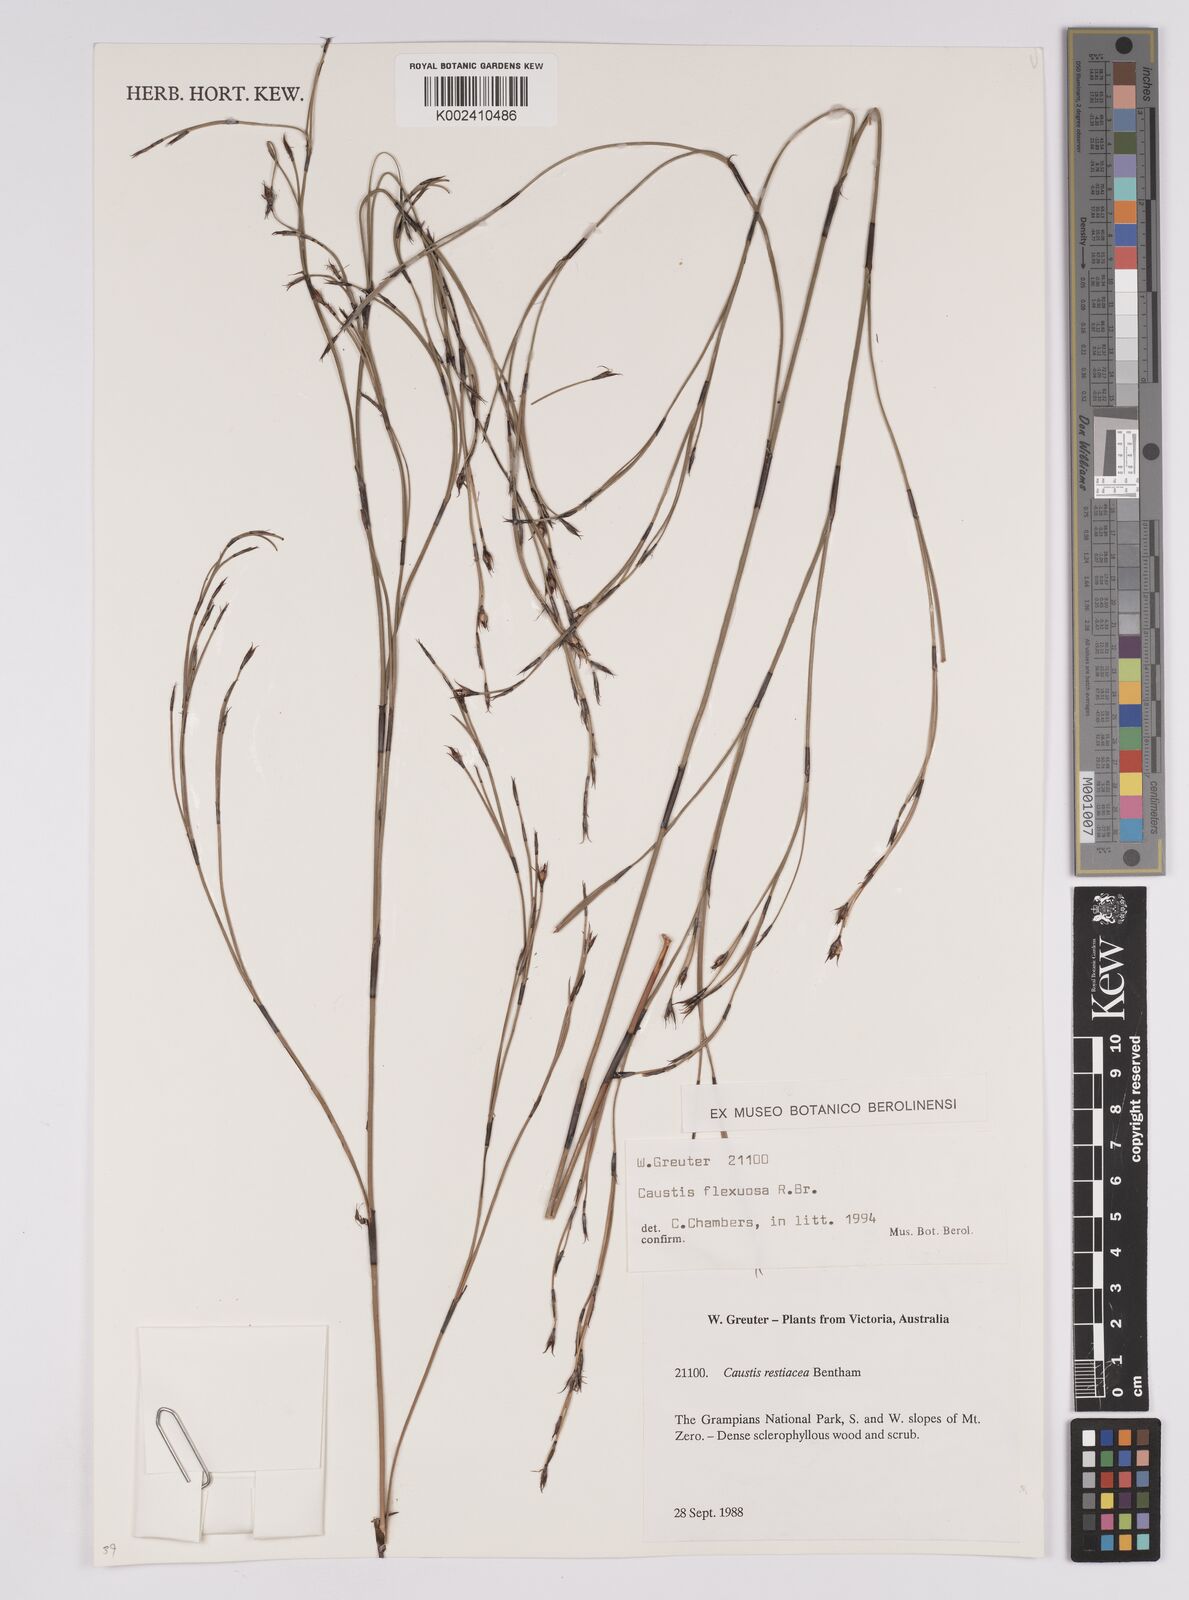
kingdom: Plantae
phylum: Tracheophyta
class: Liliopsida
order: Poales
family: Cyperaceae
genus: Caustis
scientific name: Caustis flexuosa
